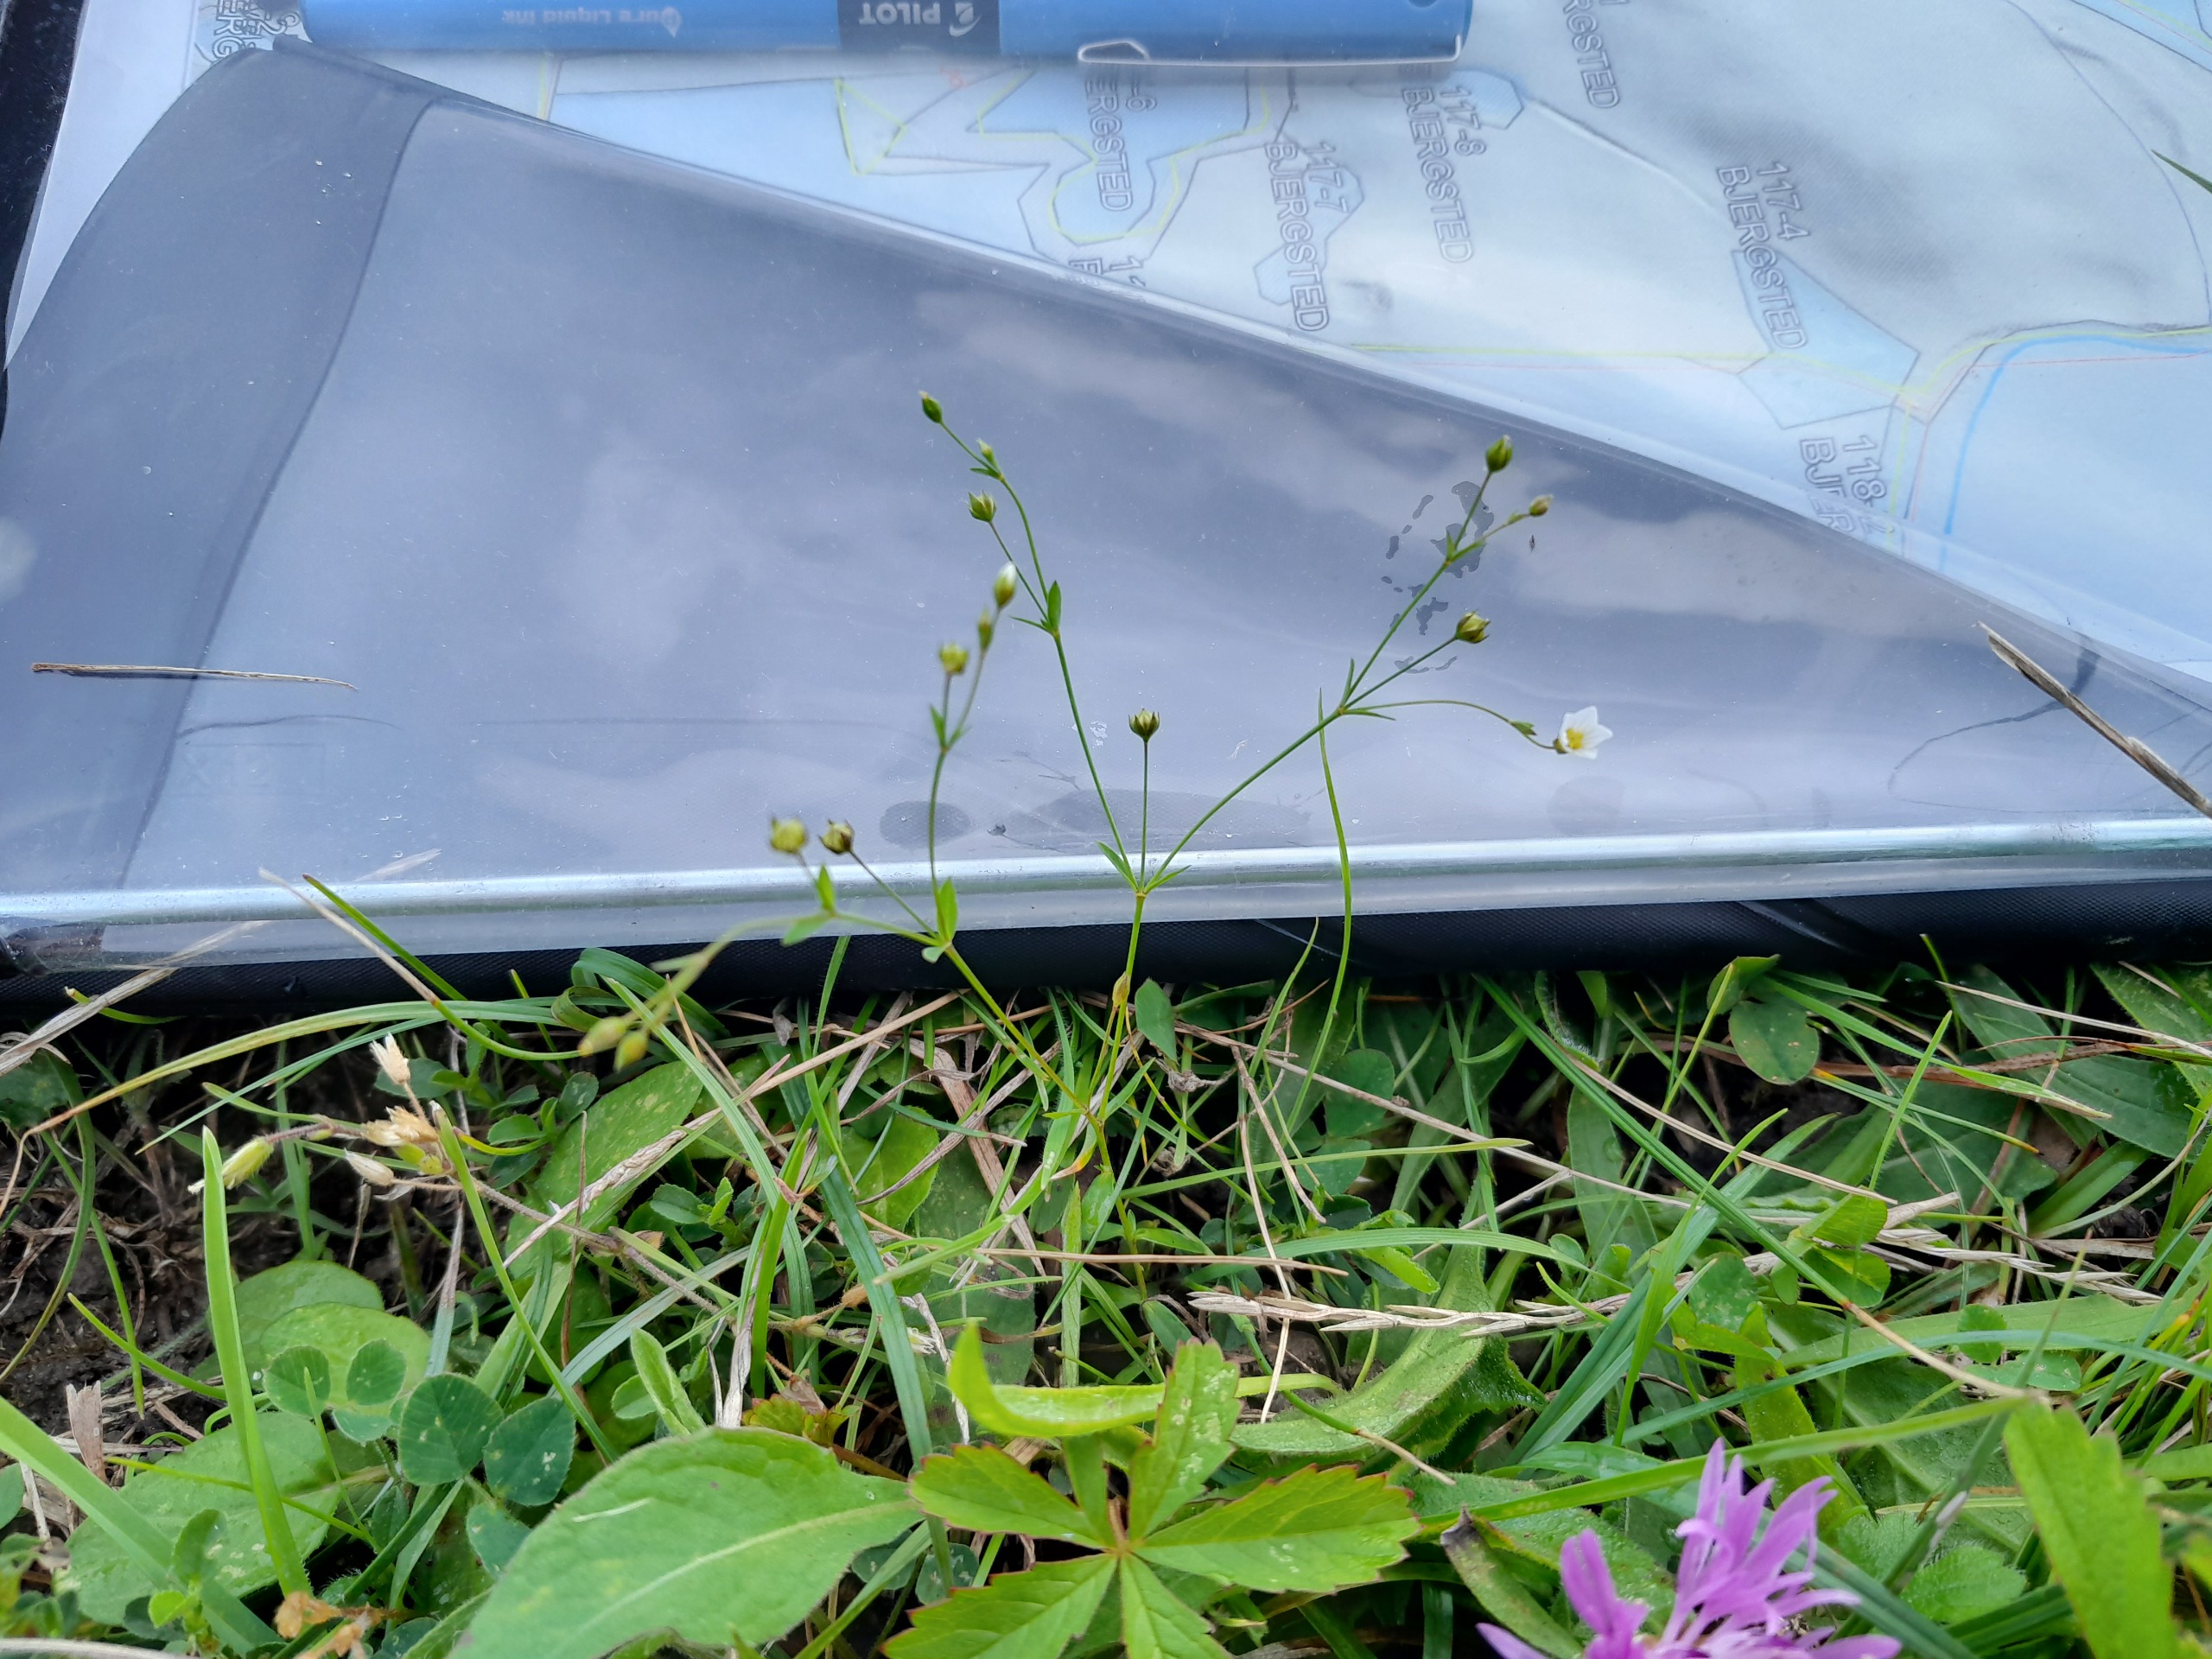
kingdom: Plantae
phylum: Tracheophyta
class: Magnoliopsida
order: Malpighiales
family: Linaceae
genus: Linum
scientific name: Linum catharticum
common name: Vild hør
